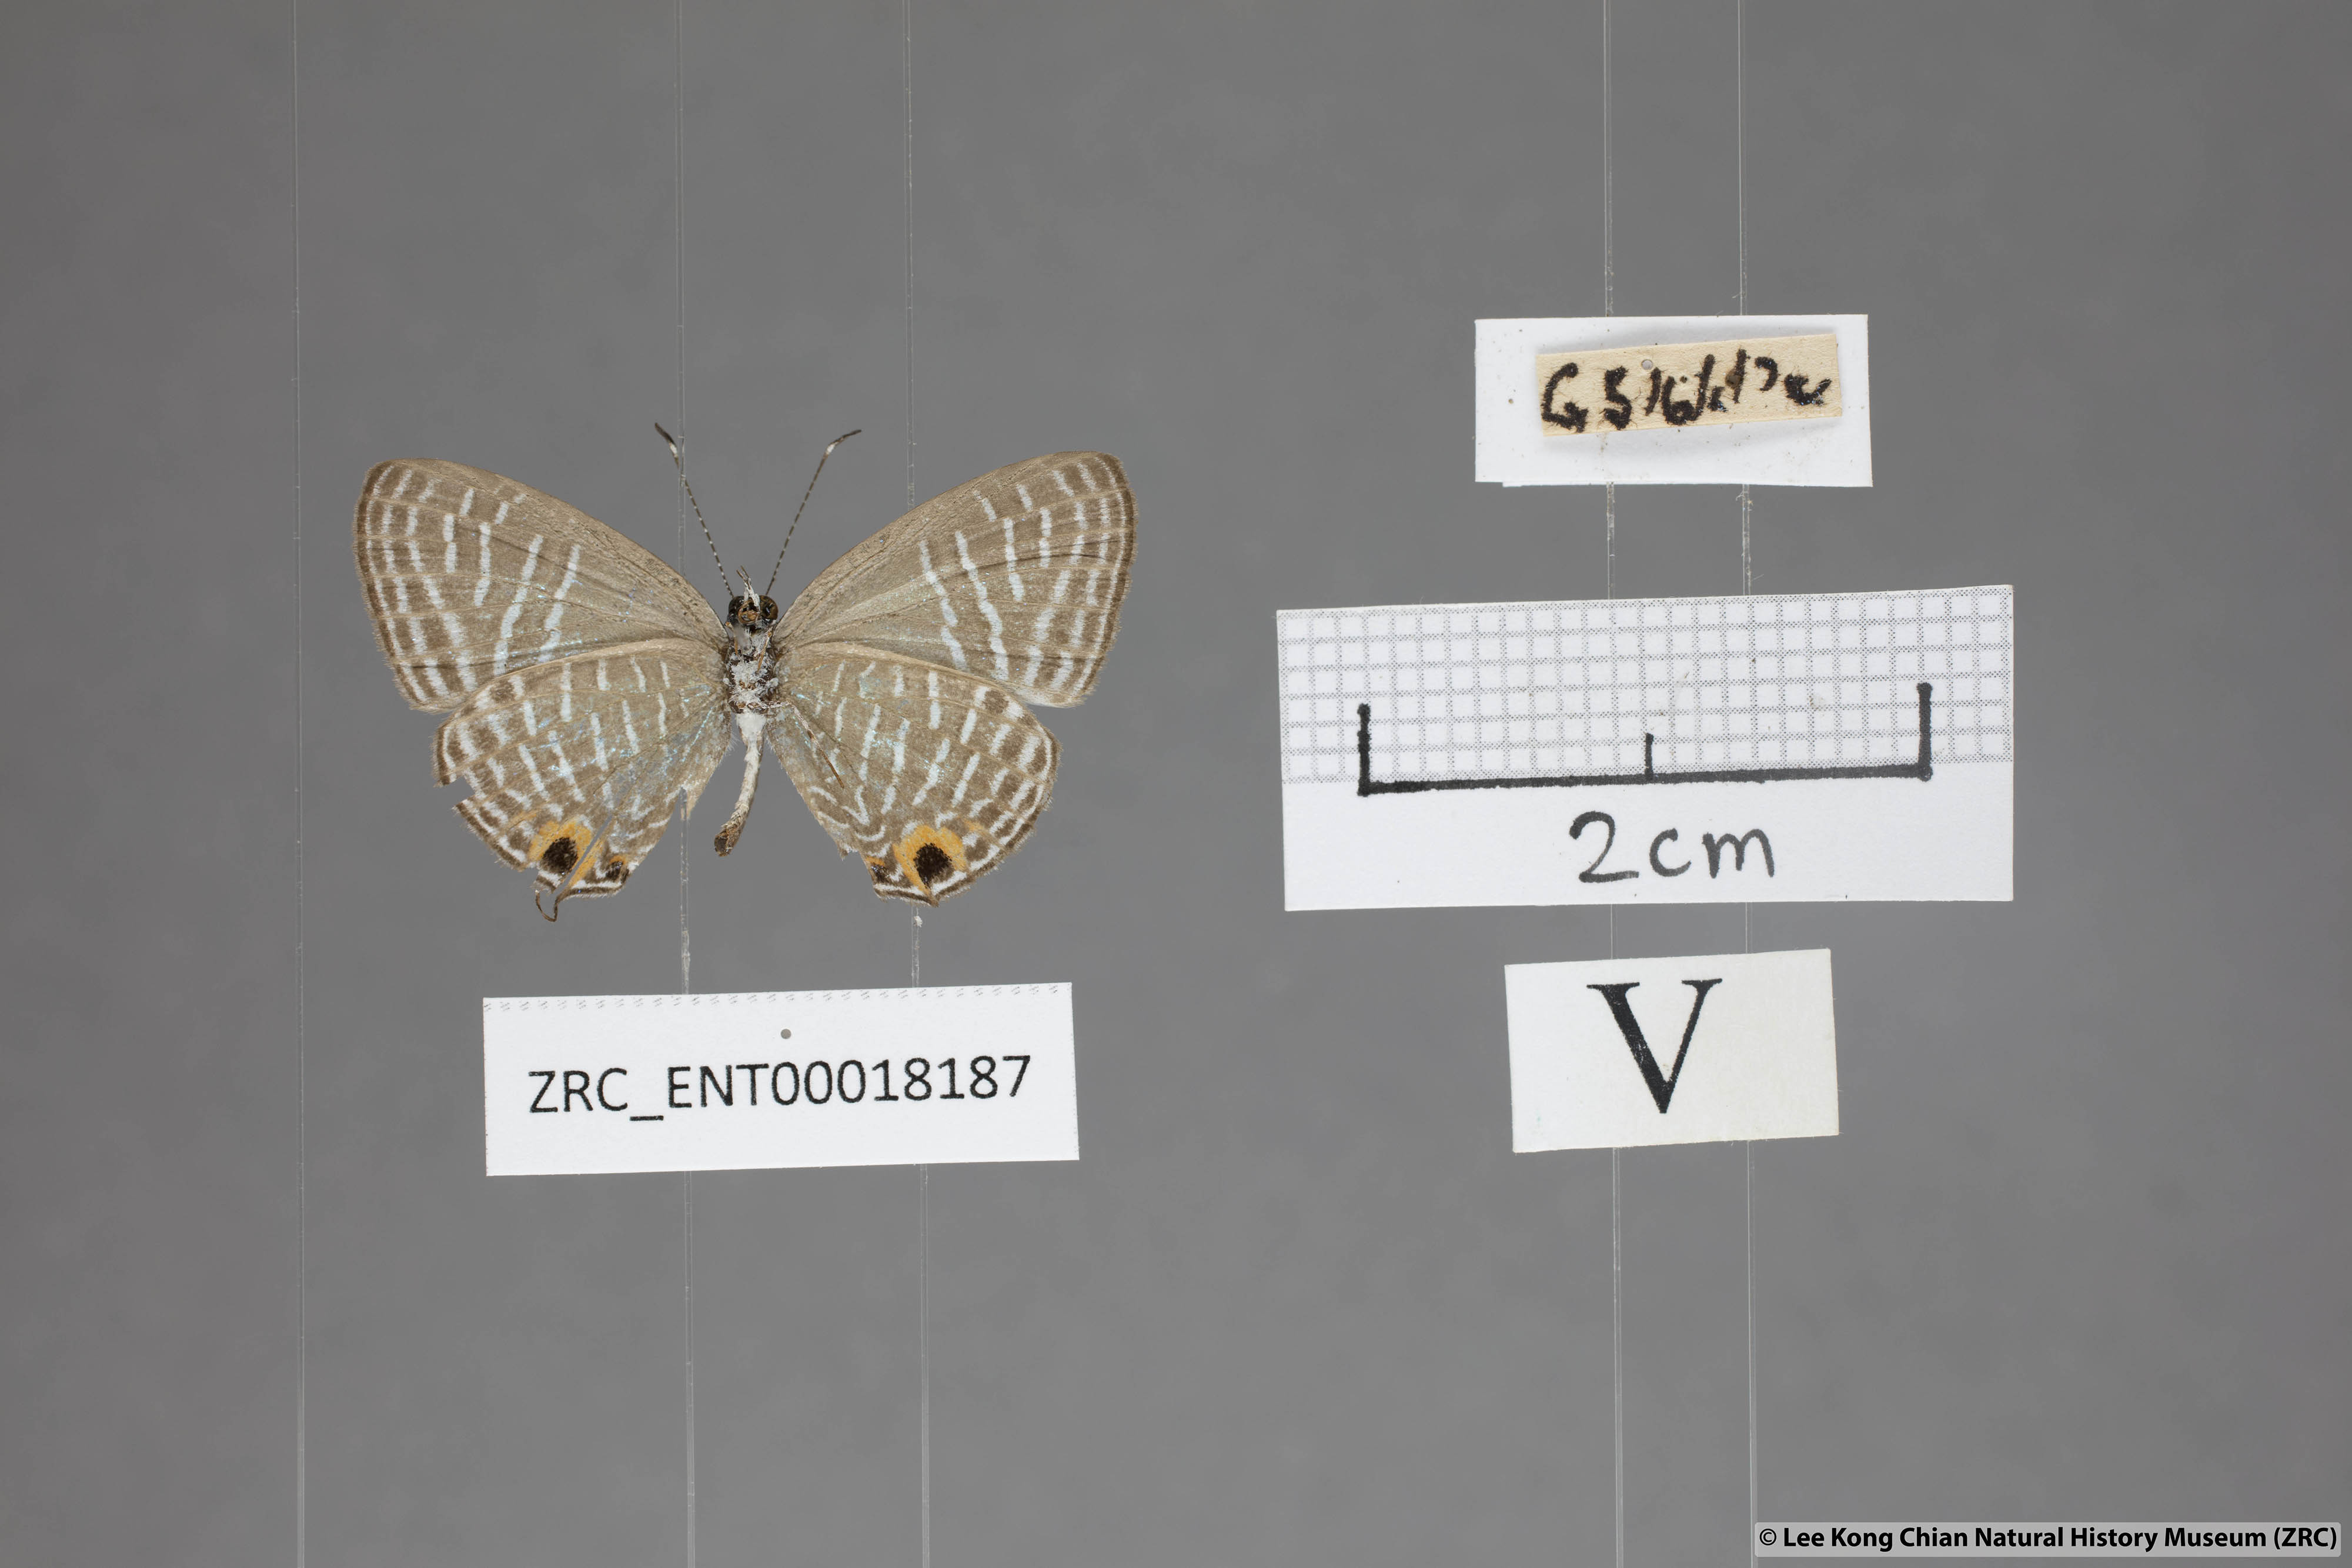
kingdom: Animalia
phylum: Arthropoda
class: Insecta
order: Lepidoptera
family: Lycaenidae
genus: Jamides
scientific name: Jamides talinga
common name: Lesser cerulean
